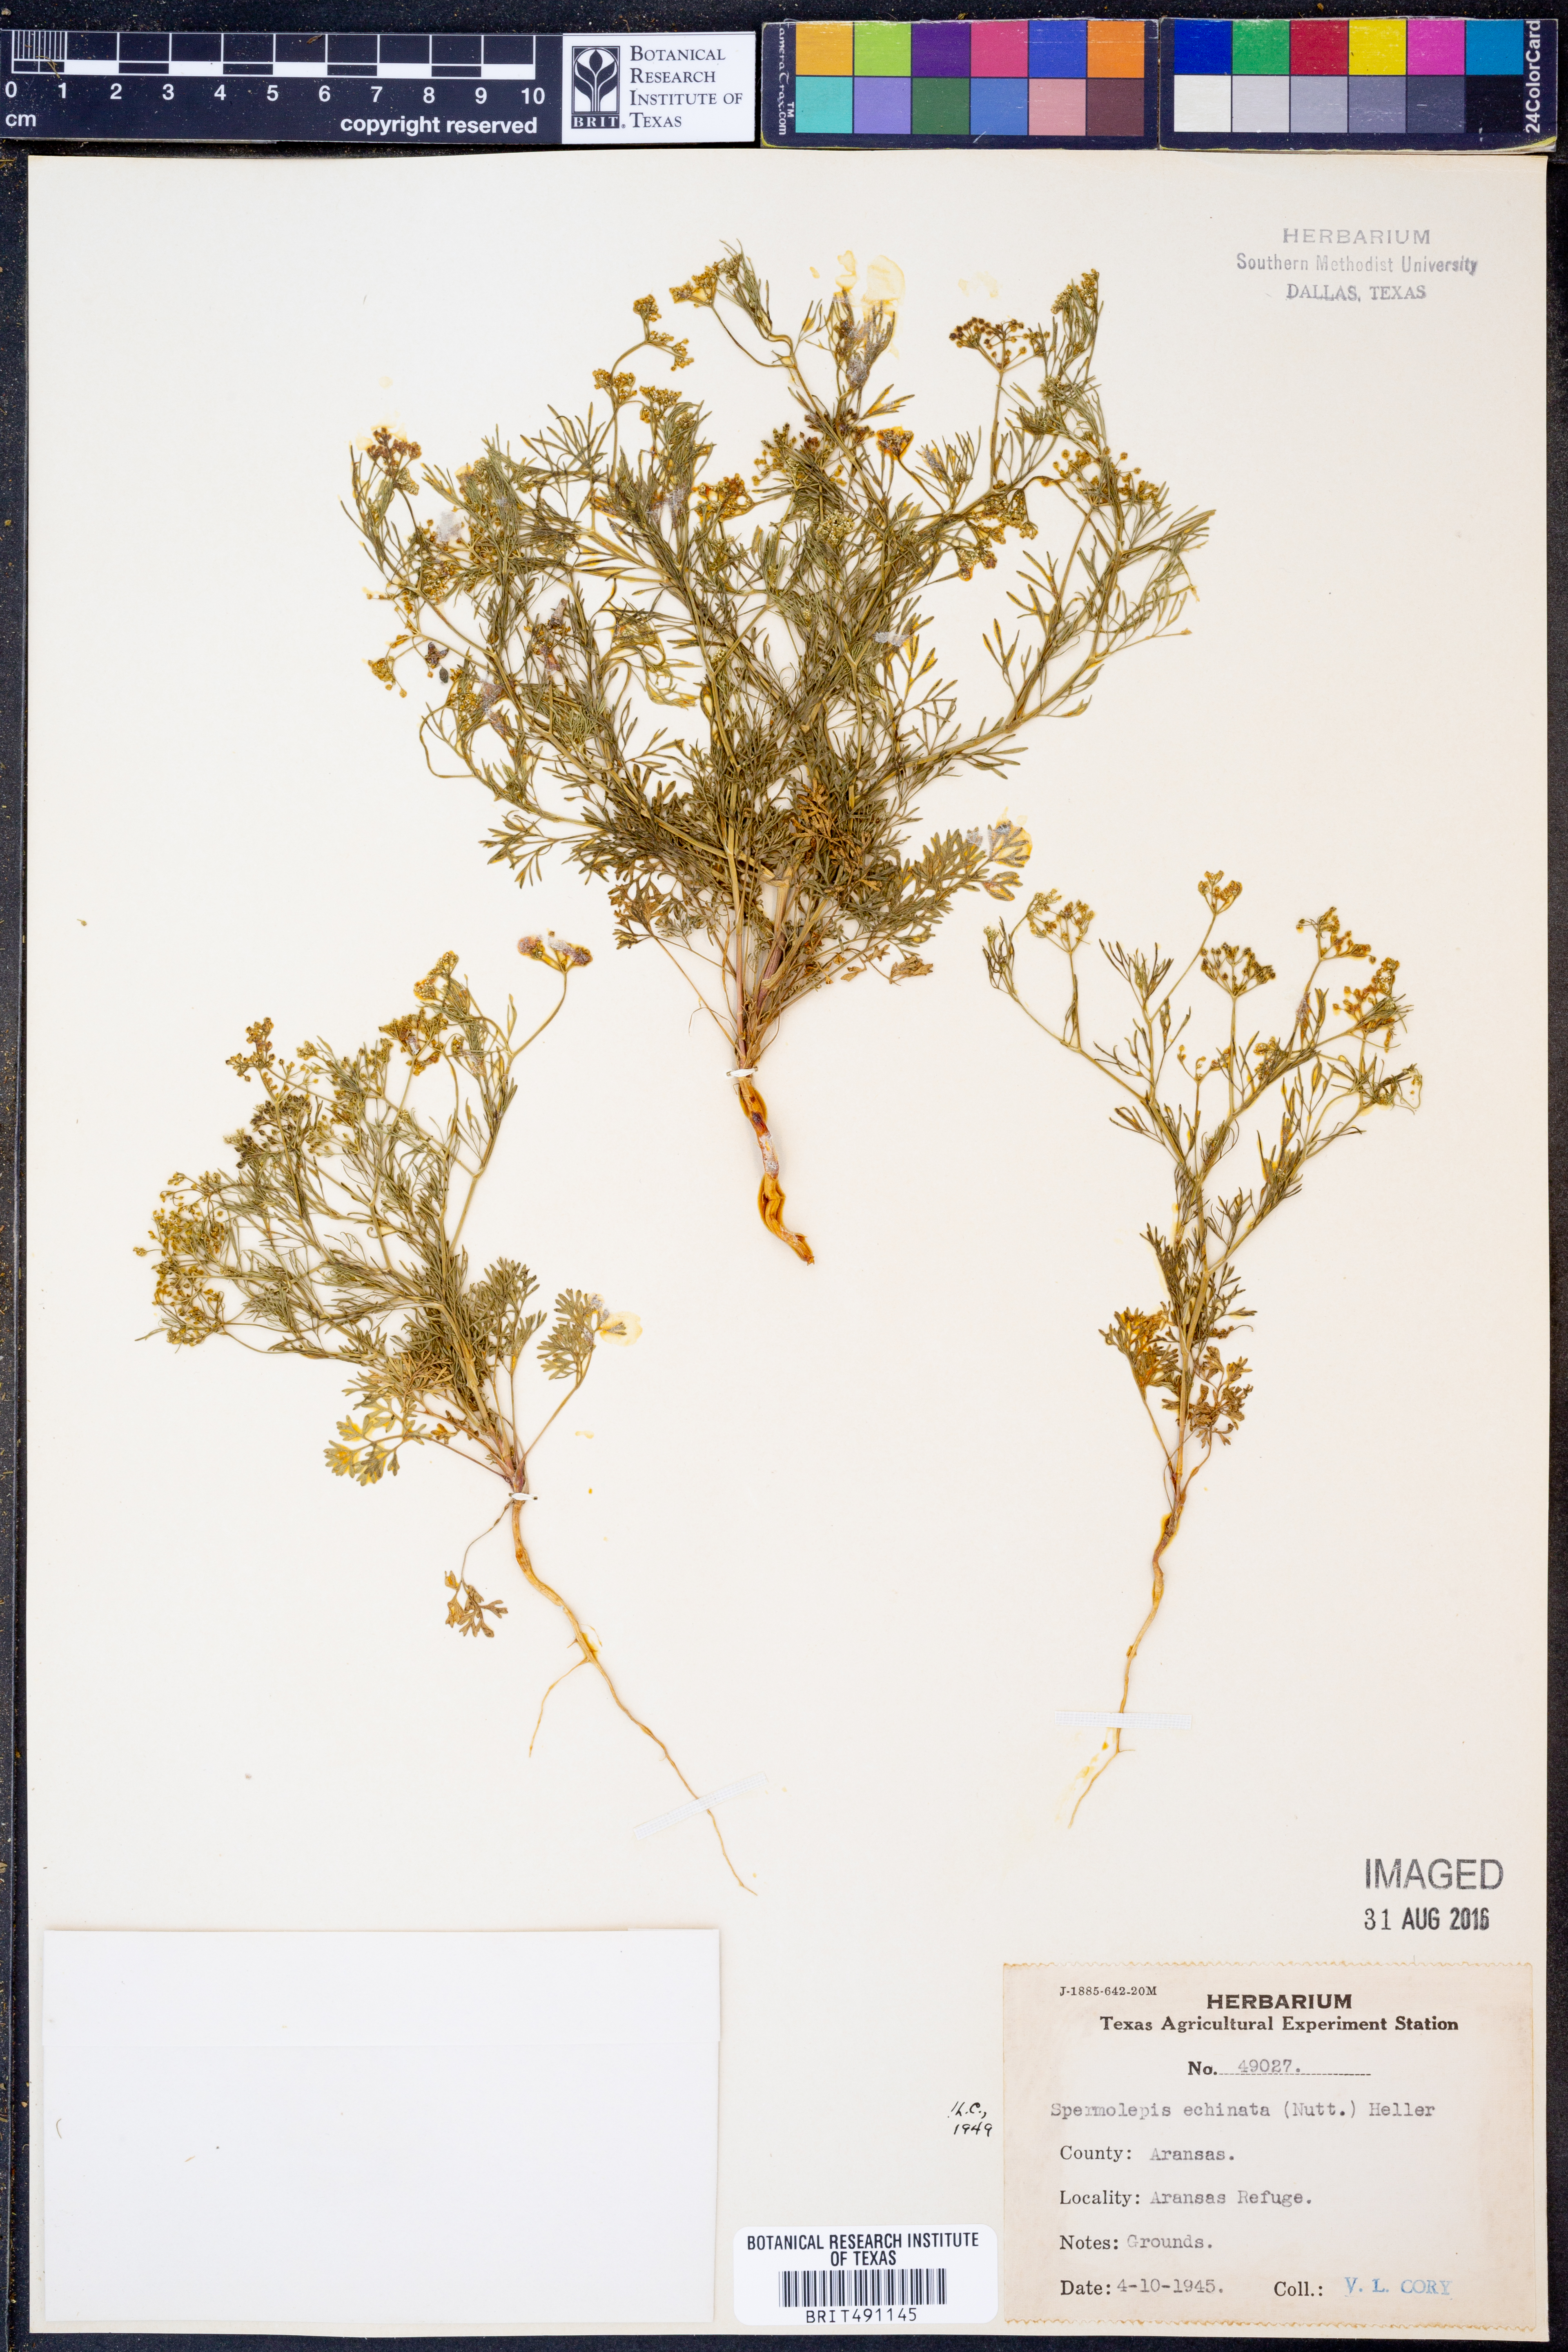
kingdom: Plantae
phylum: Tracheophyta
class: Magnoliopsida
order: Apiales
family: Apiaceae
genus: Spermolepis
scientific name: Spermolepis echinata
